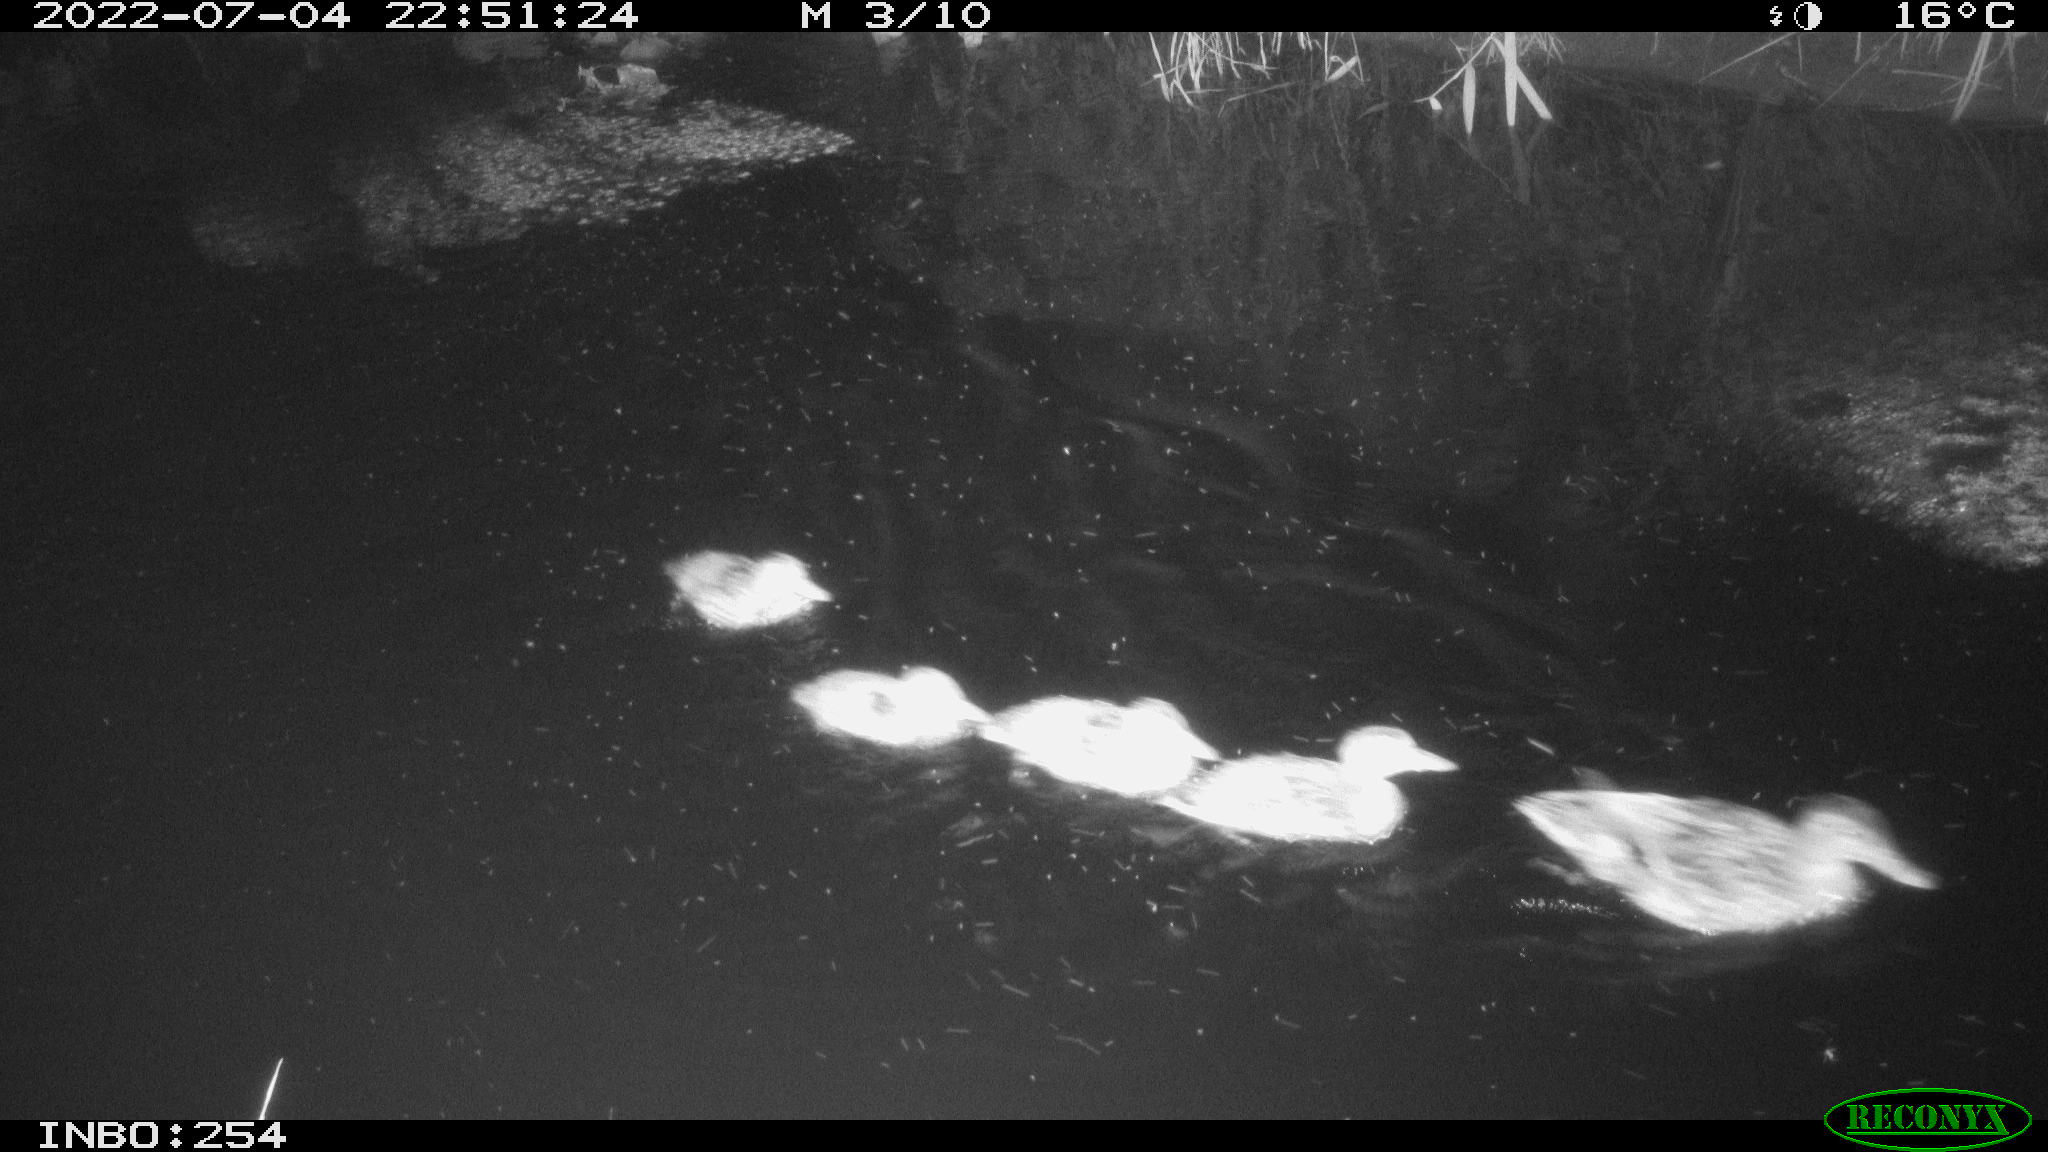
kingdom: Animalia
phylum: Chordata
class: Aves
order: Anseriformes
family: Anatidae
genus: Anas
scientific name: Anas platyrhynchos
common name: Mallard
